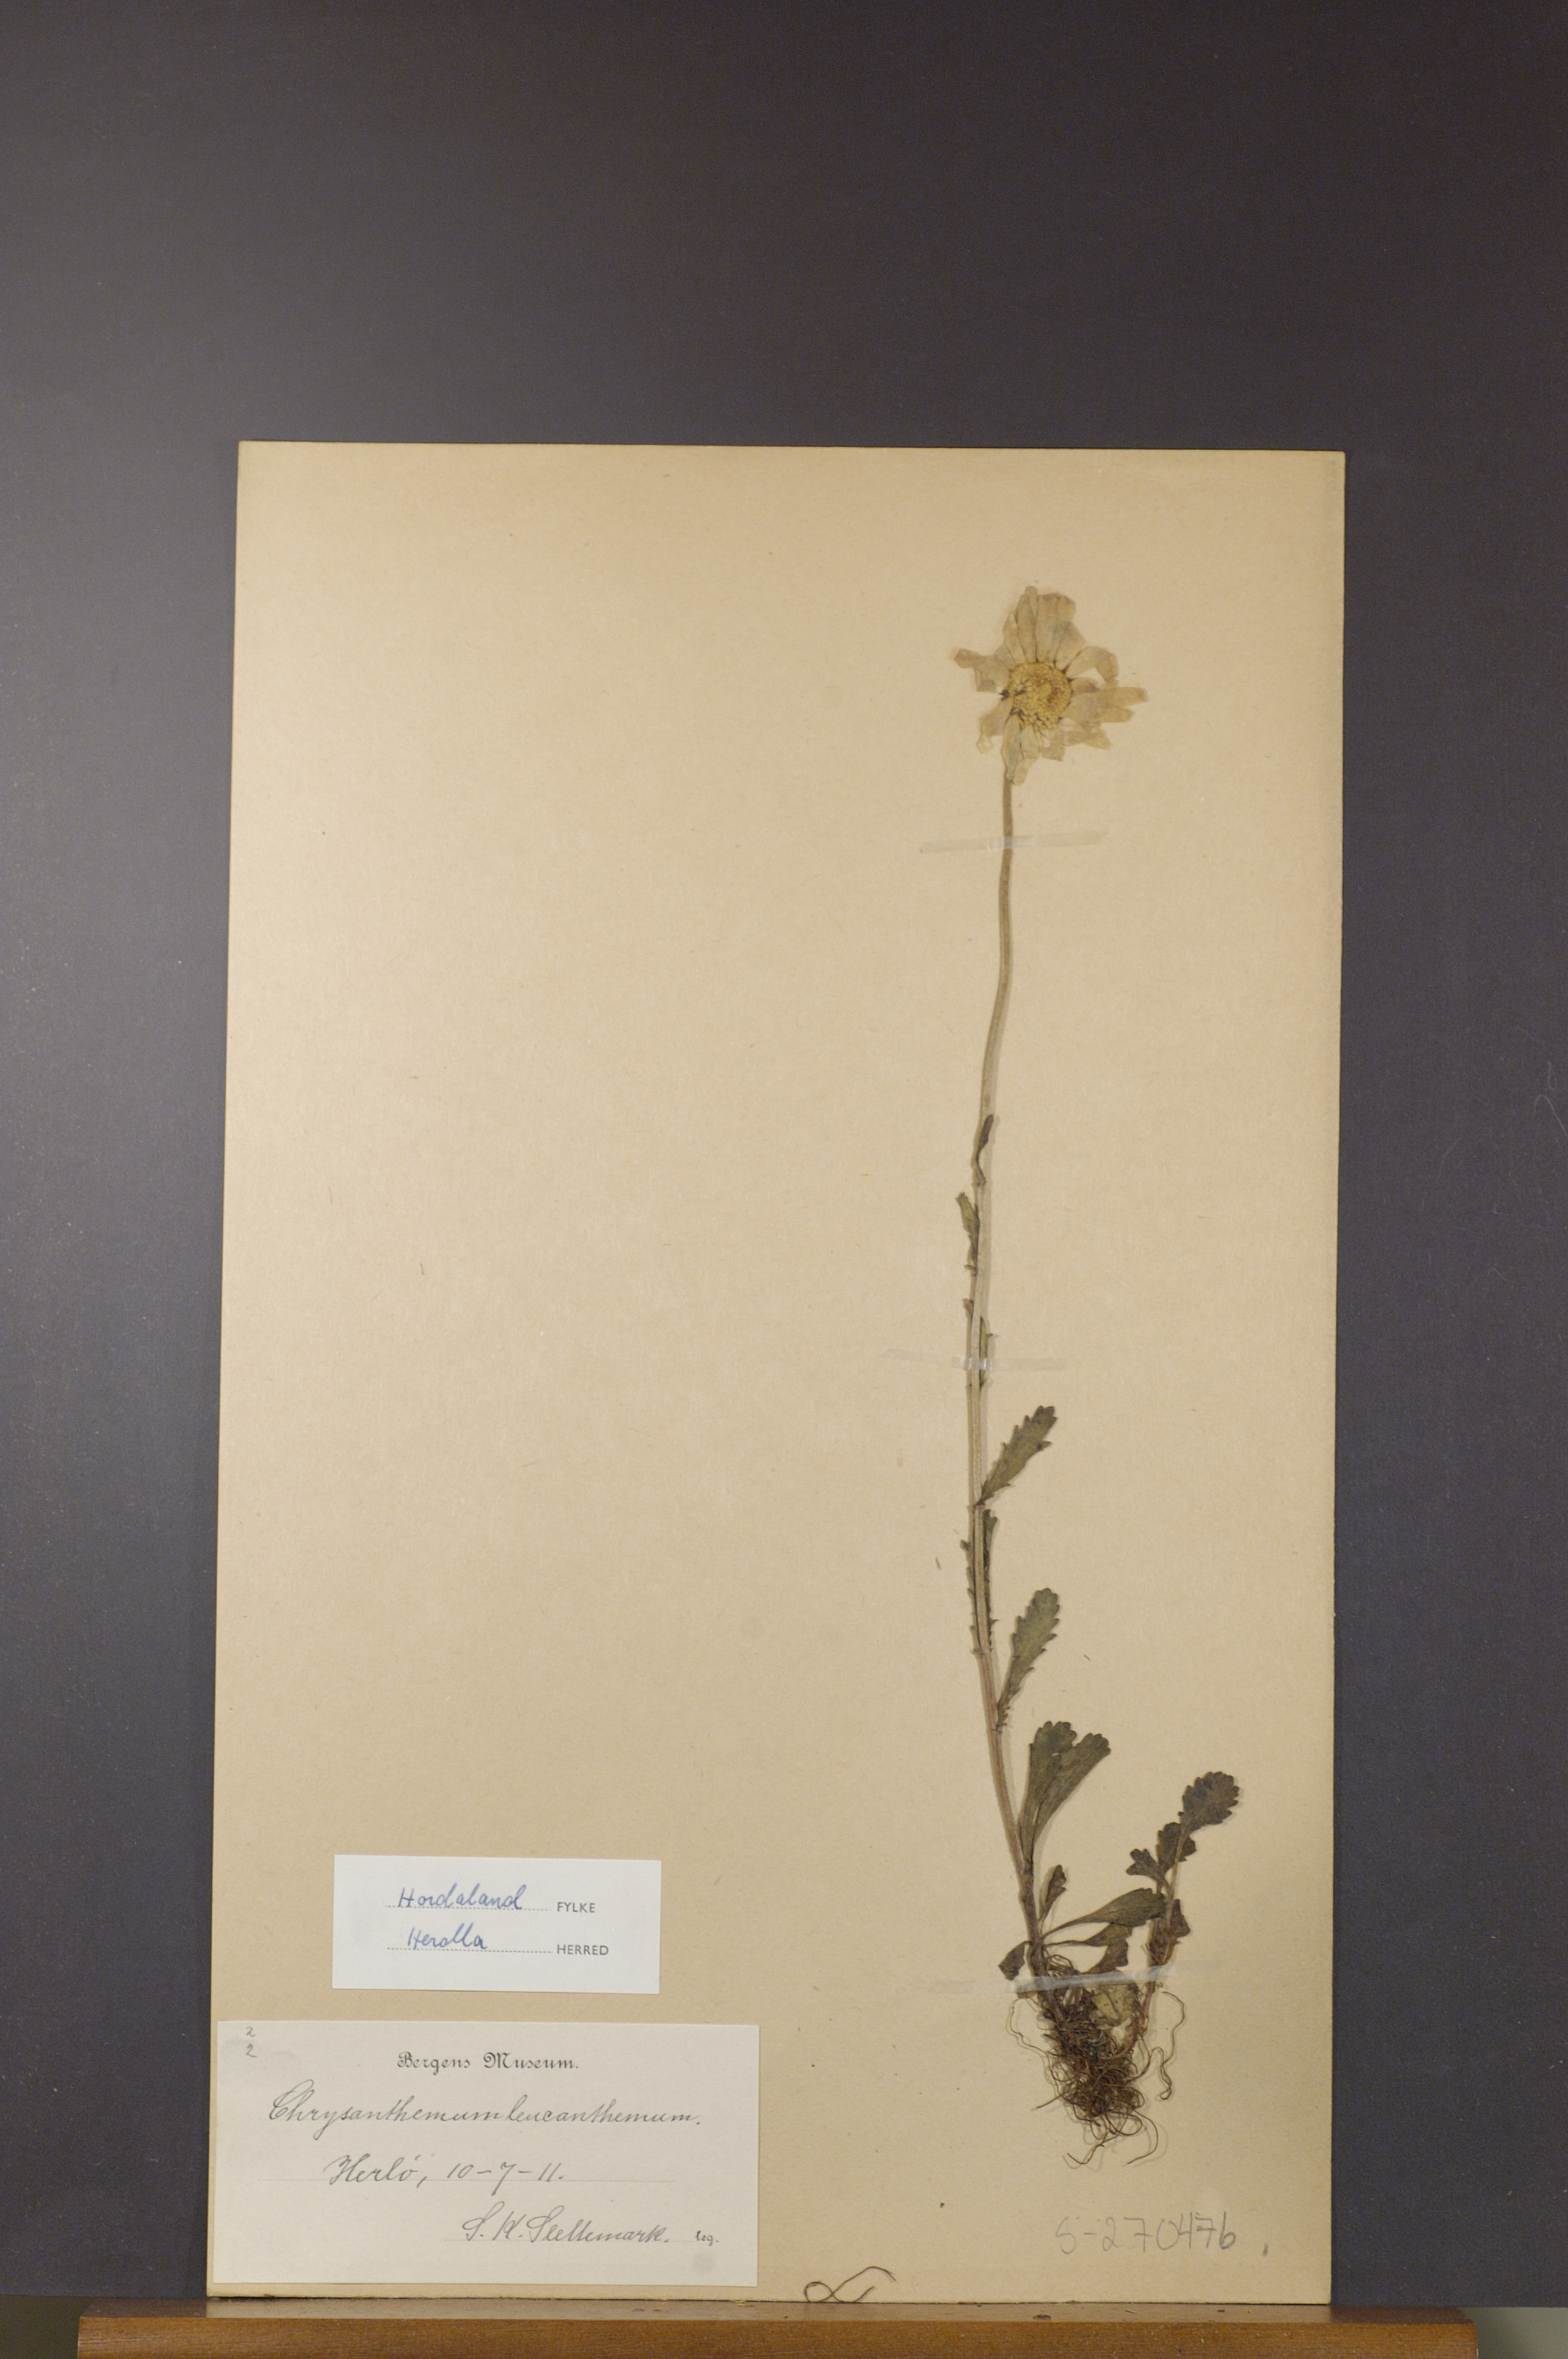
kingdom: Plantae
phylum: Tracheophyta
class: Magnoliopsida
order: Asterales
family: Asteraceae
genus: Leucanthemum
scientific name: Leucanthemum vulgare
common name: Oxeye daisy
